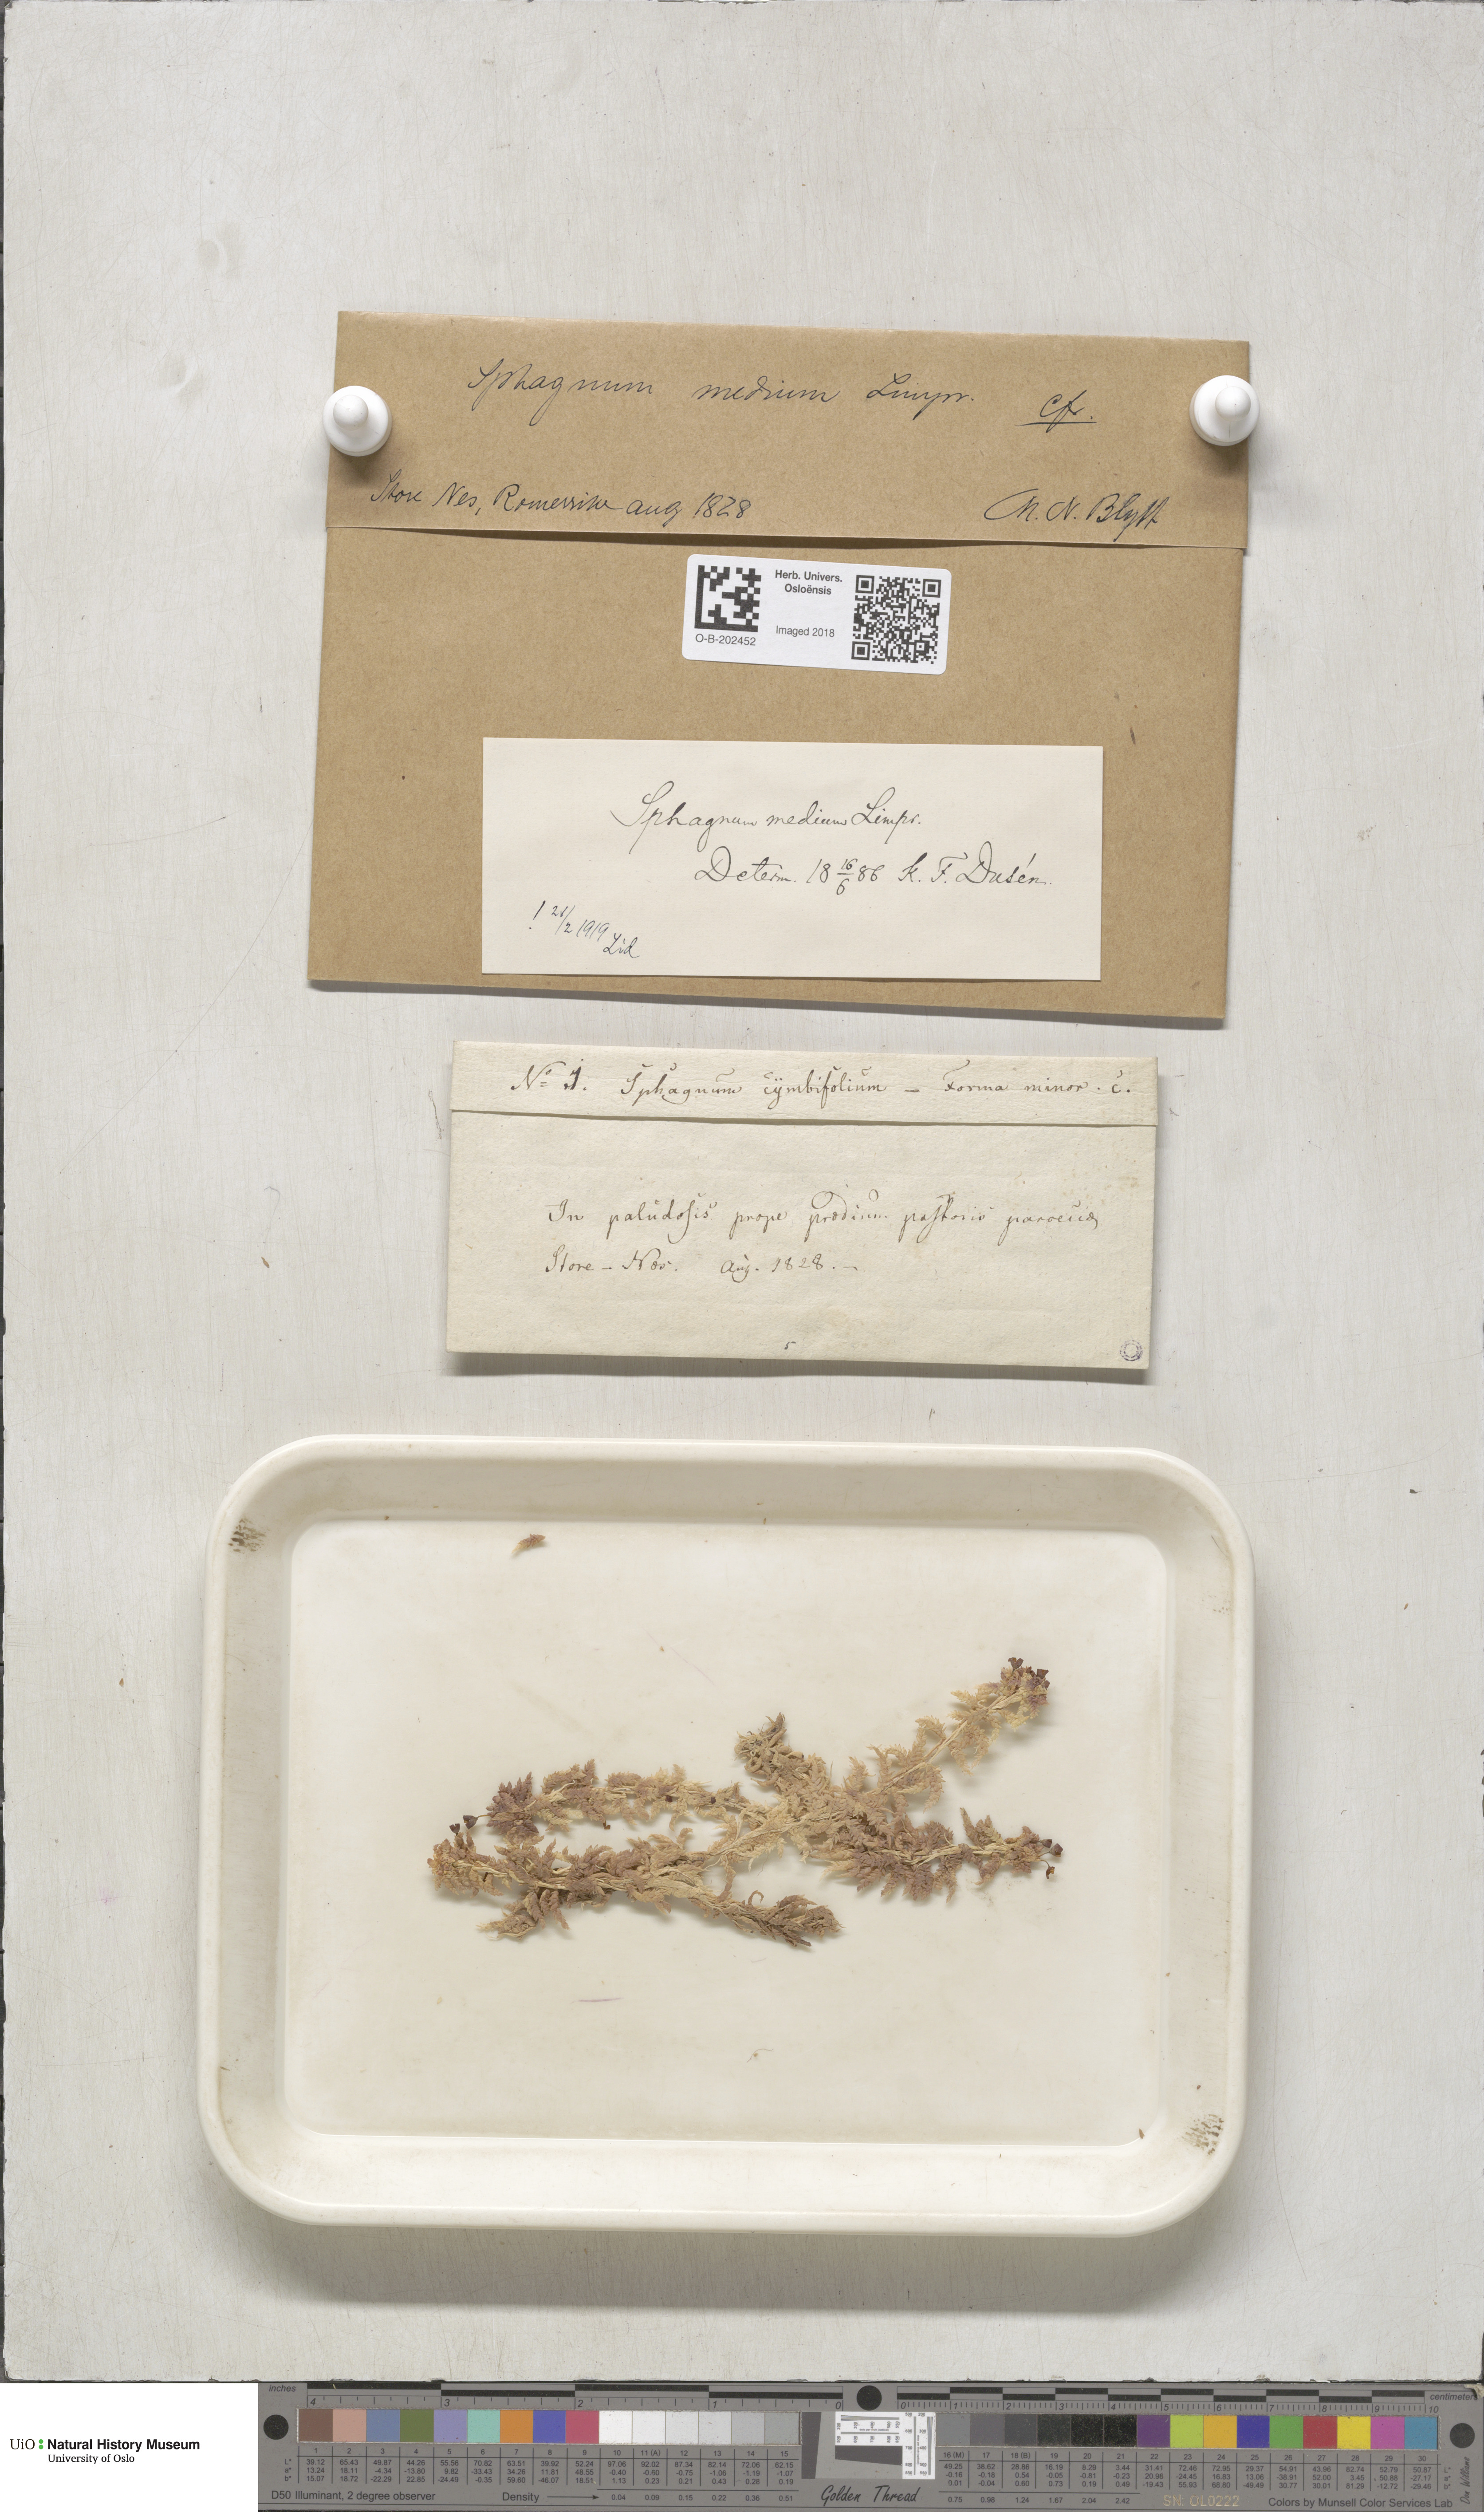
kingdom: Plantae
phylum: Bryophyta
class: Sphagnopsida
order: Sphagnales
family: Sphagnaceae
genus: Sphagnum
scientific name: Sphagnum medium
